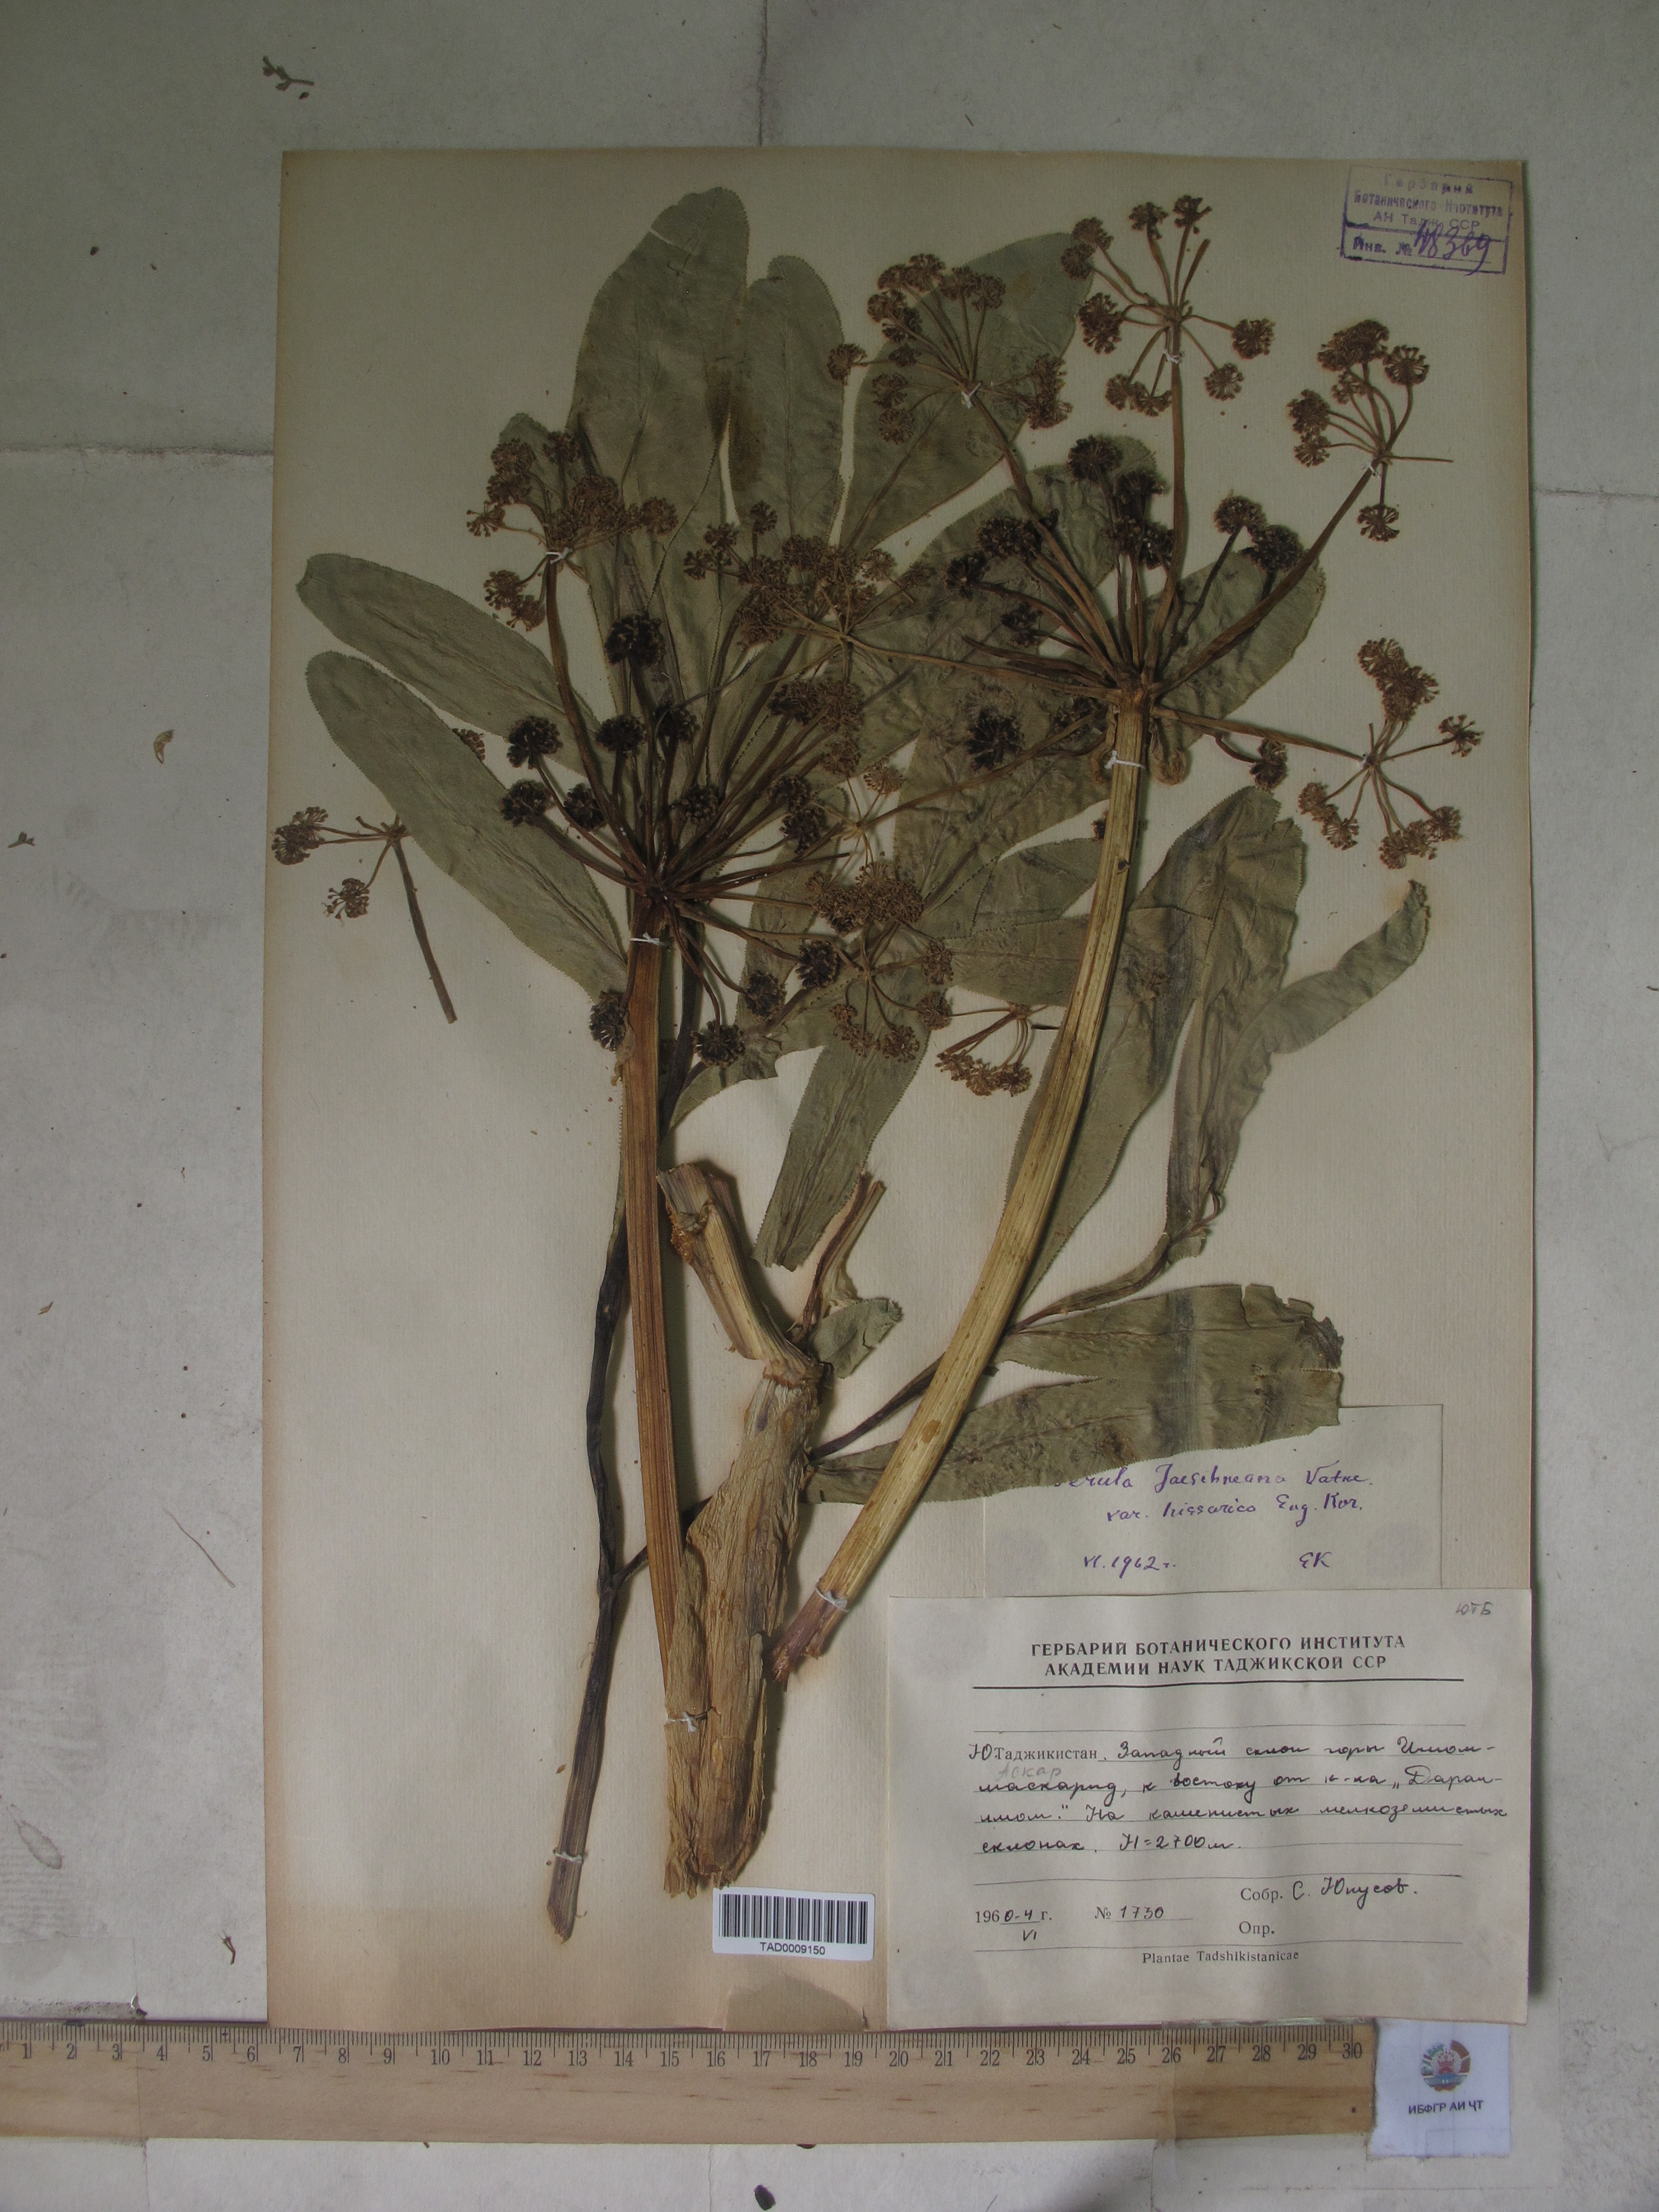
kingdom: Plantae
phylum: Tracheophyta
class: Magnoliopsida
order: Apiales
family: Apiaceae
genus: Ferula
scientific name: Ferula jaeschkeana
